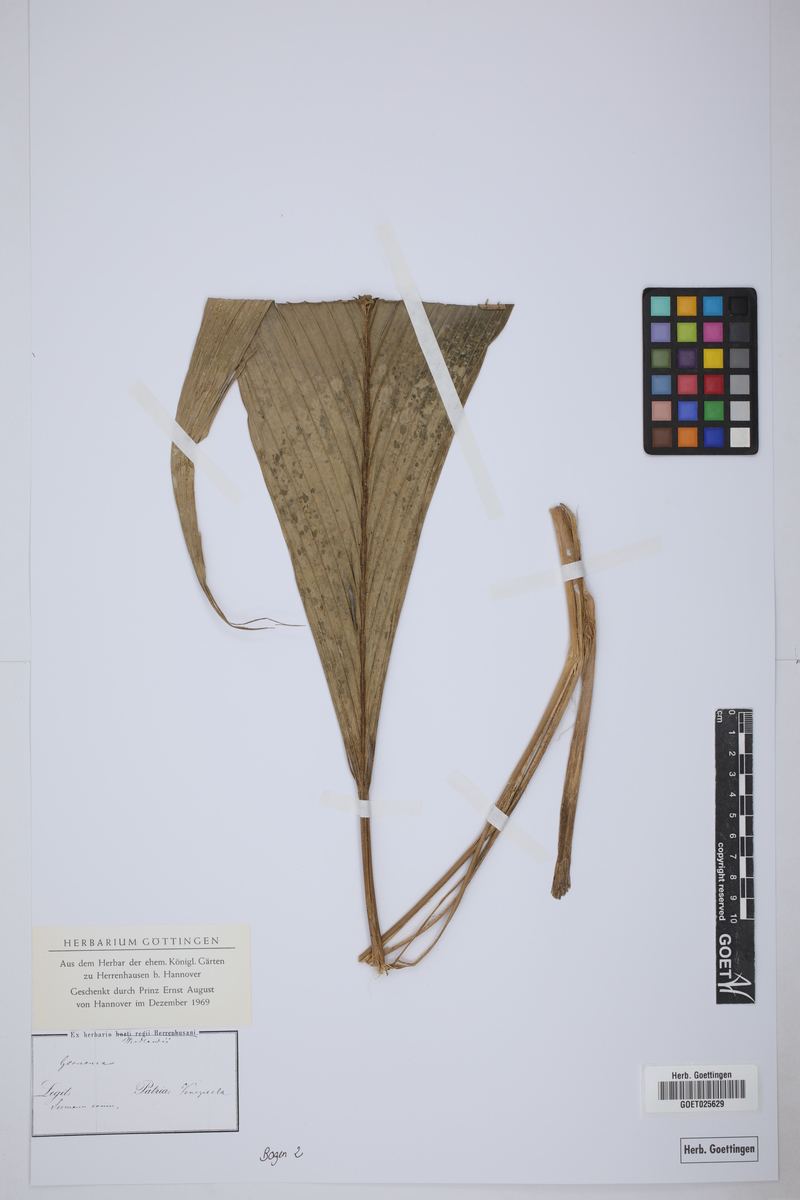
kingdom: Plantae
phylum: Tracheophyta
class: Liliopsida
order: Arecales
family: Arecaceae
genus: Geonoma
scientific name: Geonoma
